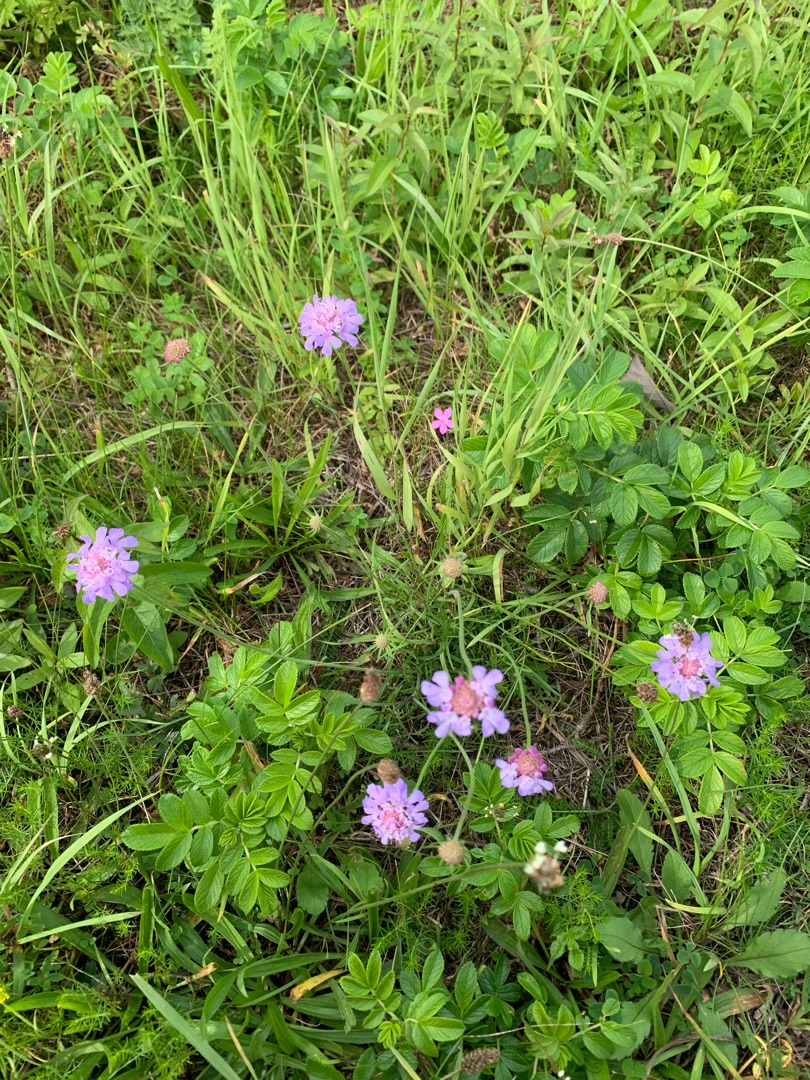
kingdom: Plantae
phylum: Tracheophyta
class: Magnoliopsida
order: Dipsacales
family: Caprifoliaceae
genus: Scabiosa
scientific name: Scabiosa columbaria
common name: Due-skabiose
